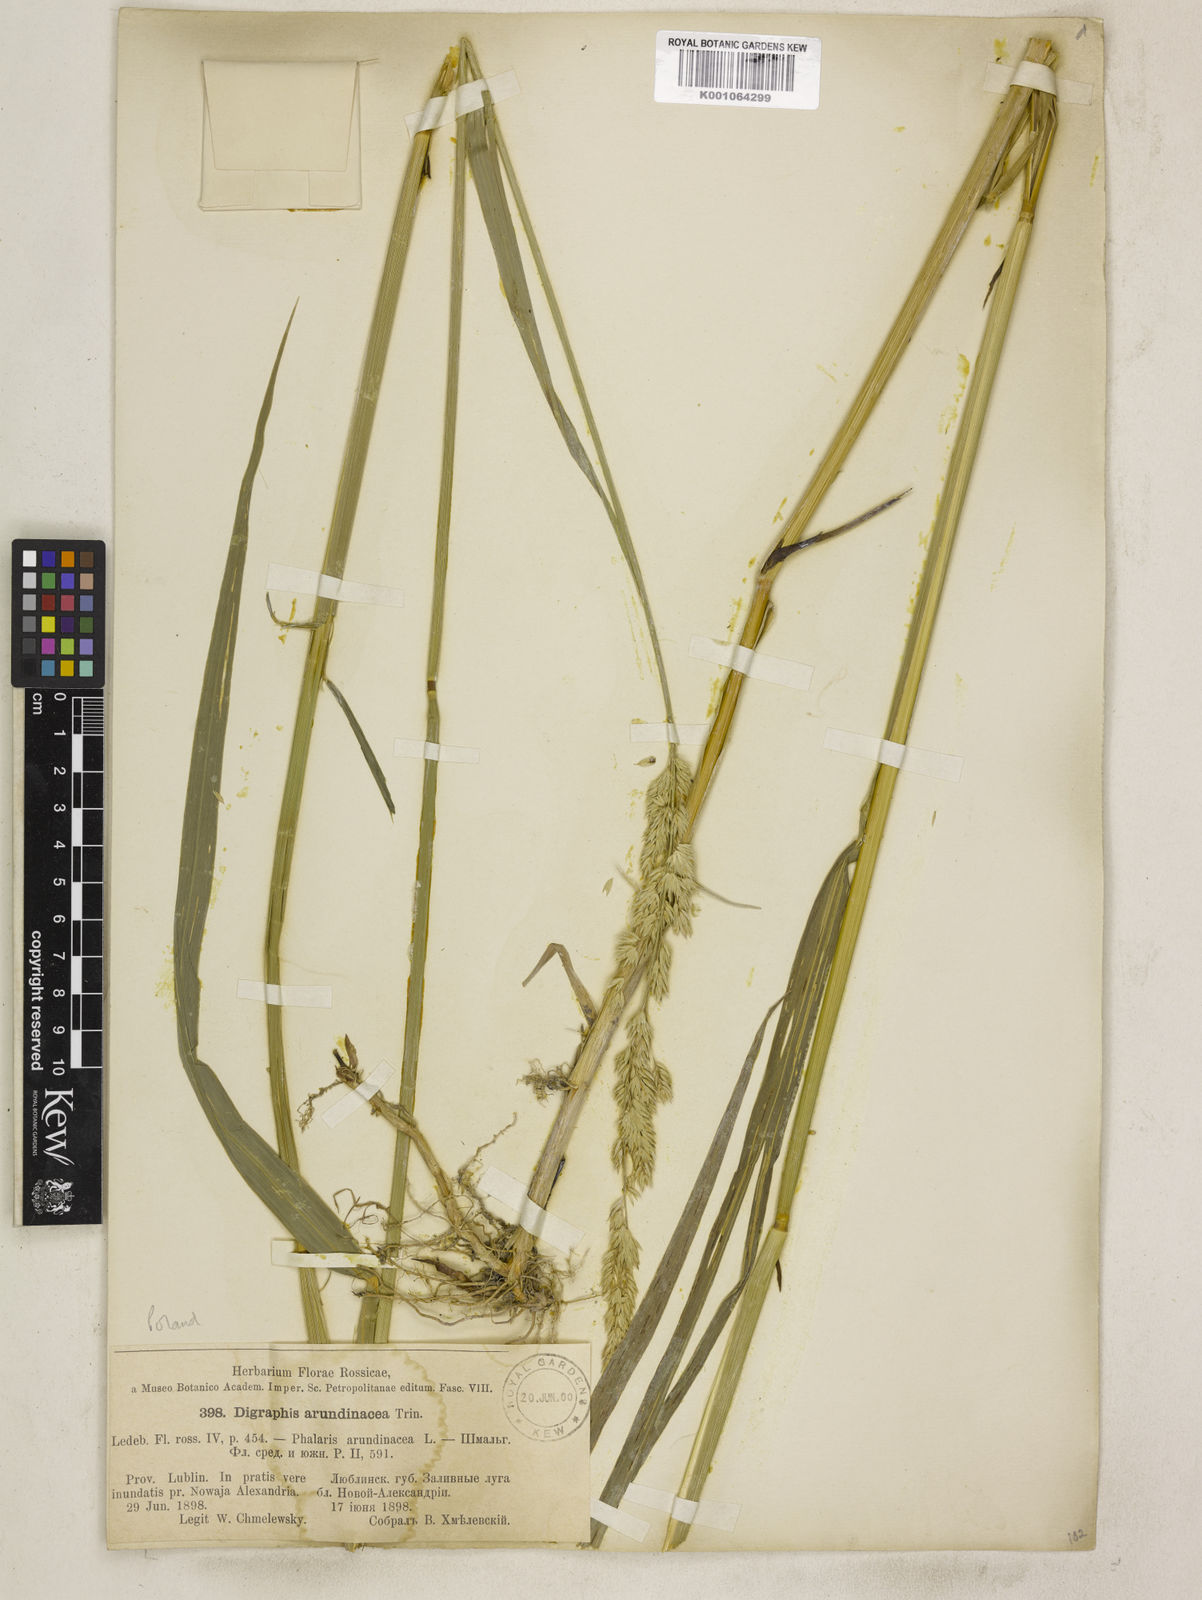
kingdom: Plantae
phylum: Tracheophyta
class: Liliopsida
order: Poales
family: Poaceae
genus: Phalaris
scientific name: Phalaris arundinacea
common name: Reed canary-grass
